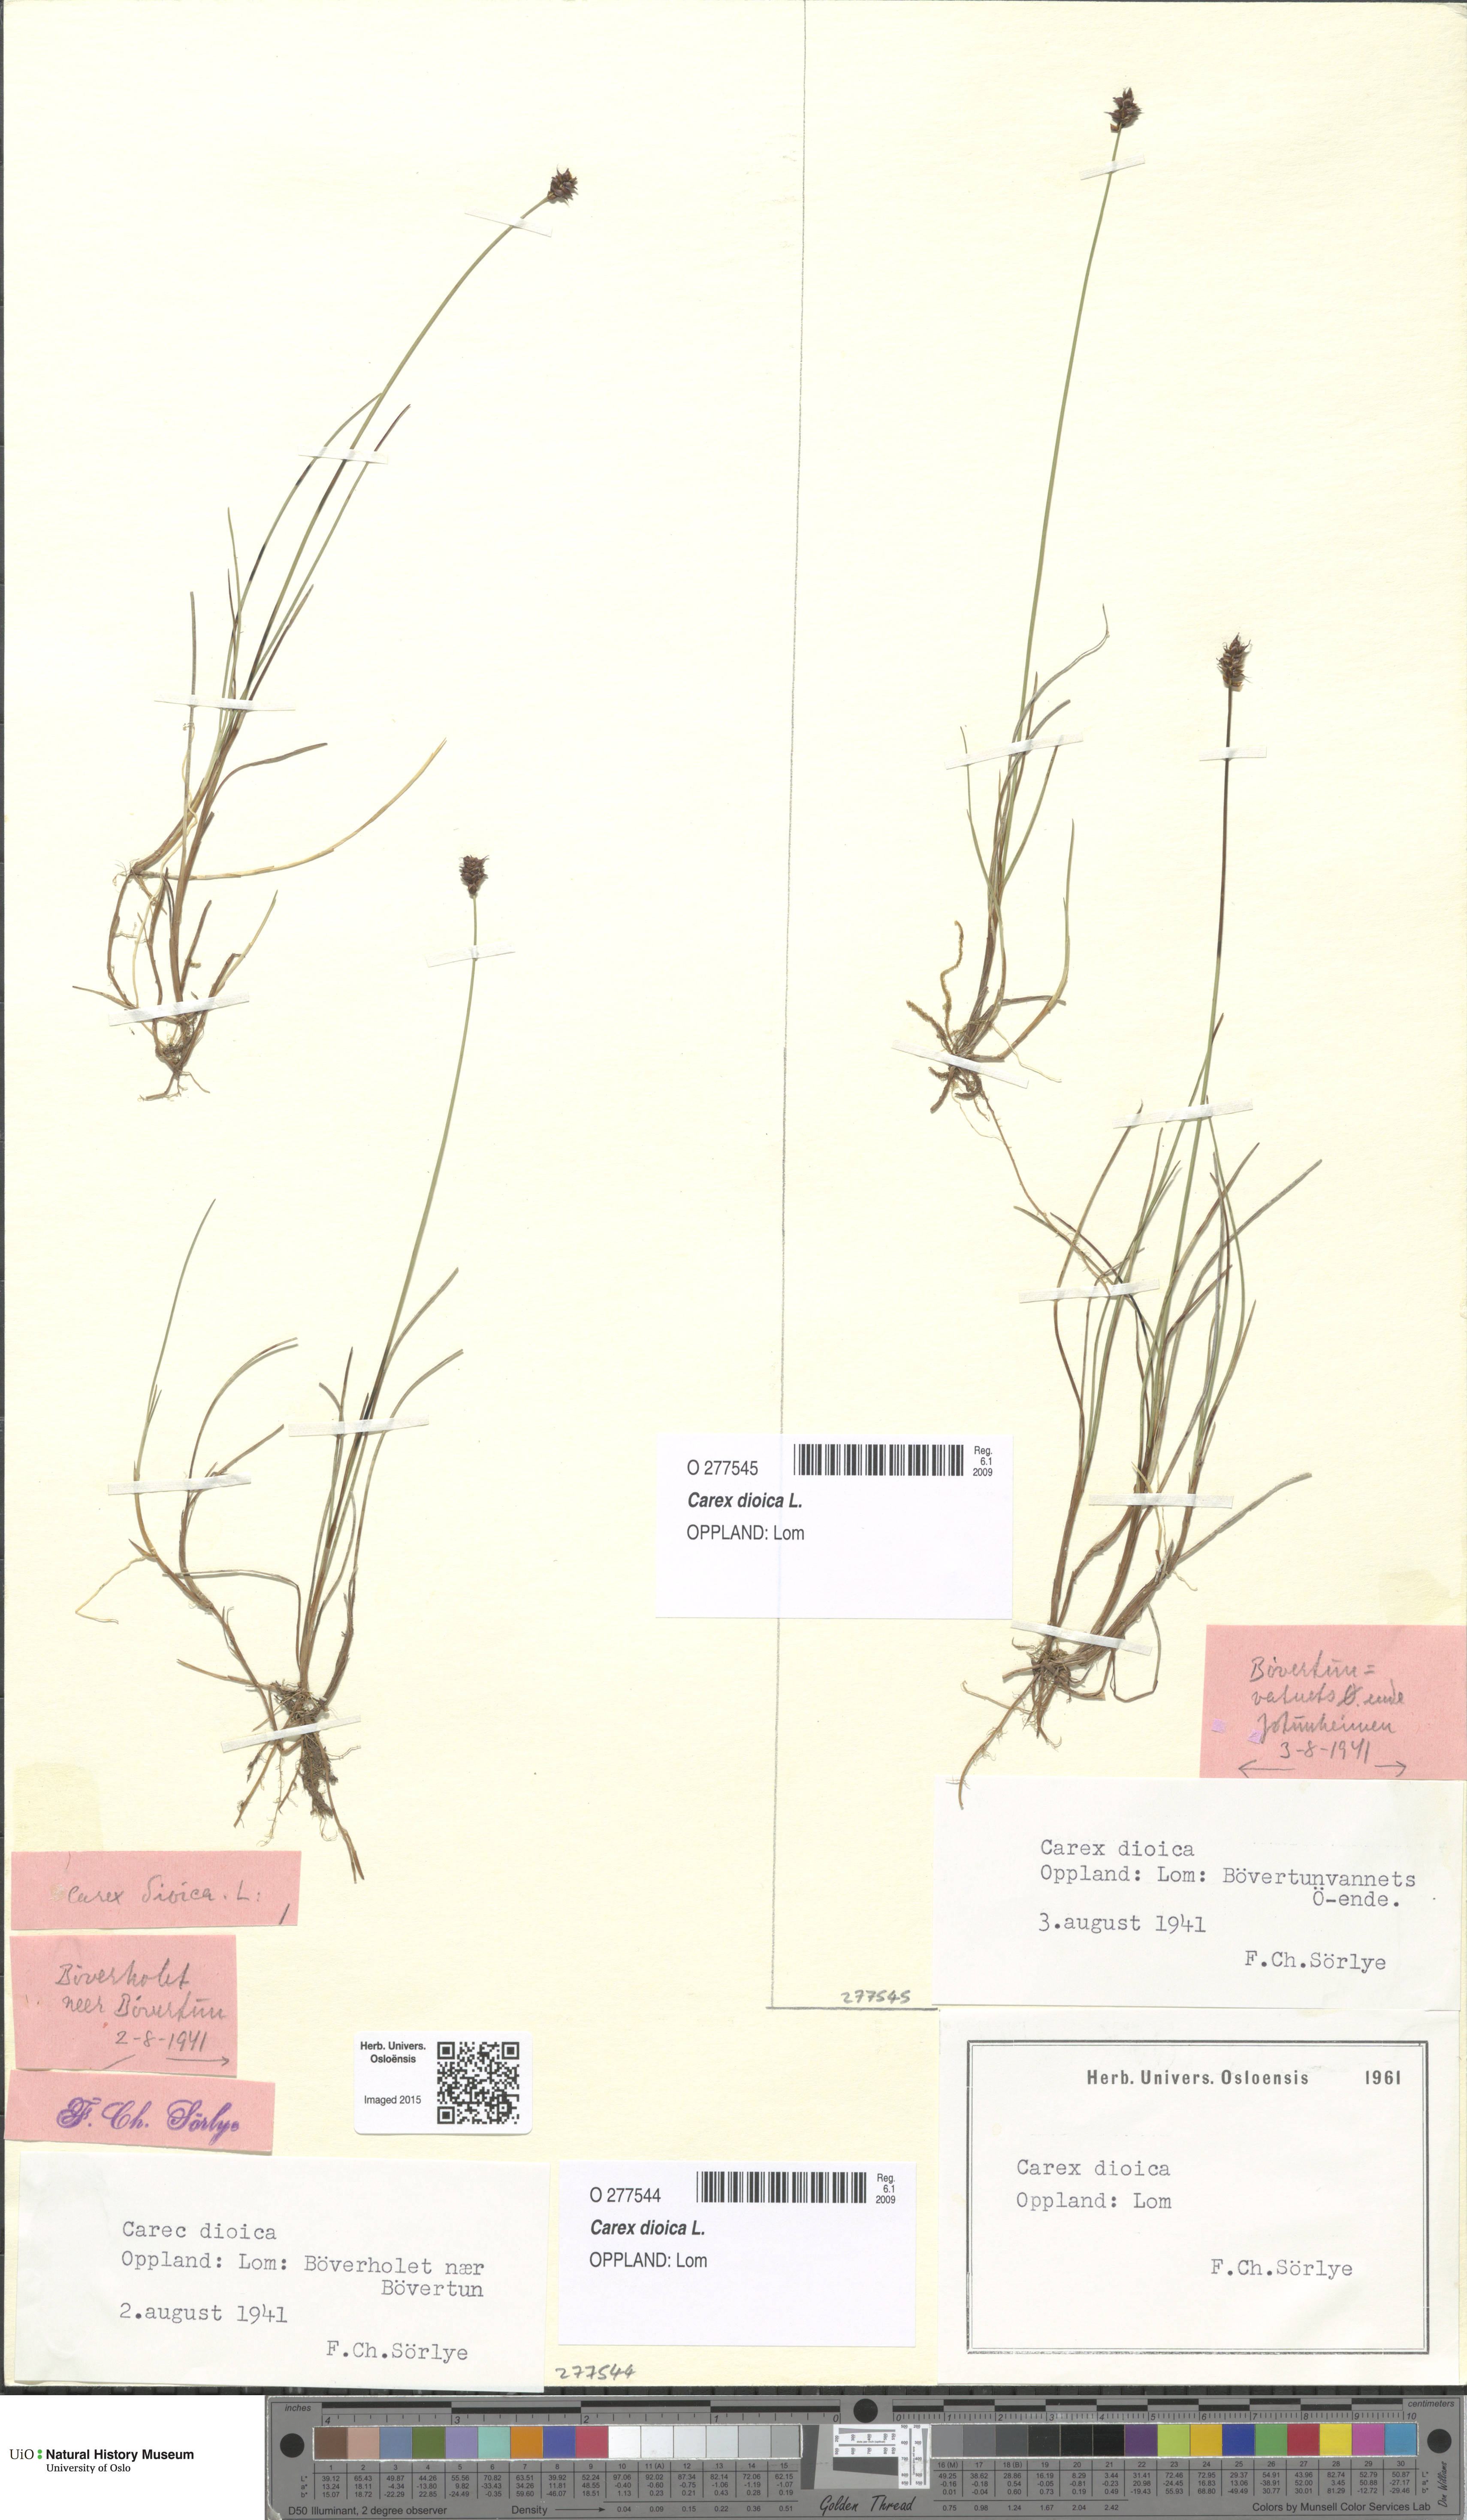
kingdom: Plantae
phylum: Tracheophyta
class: Liliopsida
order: Poales
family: Cyperaceae
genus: Carex
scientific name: Carex dioica
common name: Dioecious sedge
